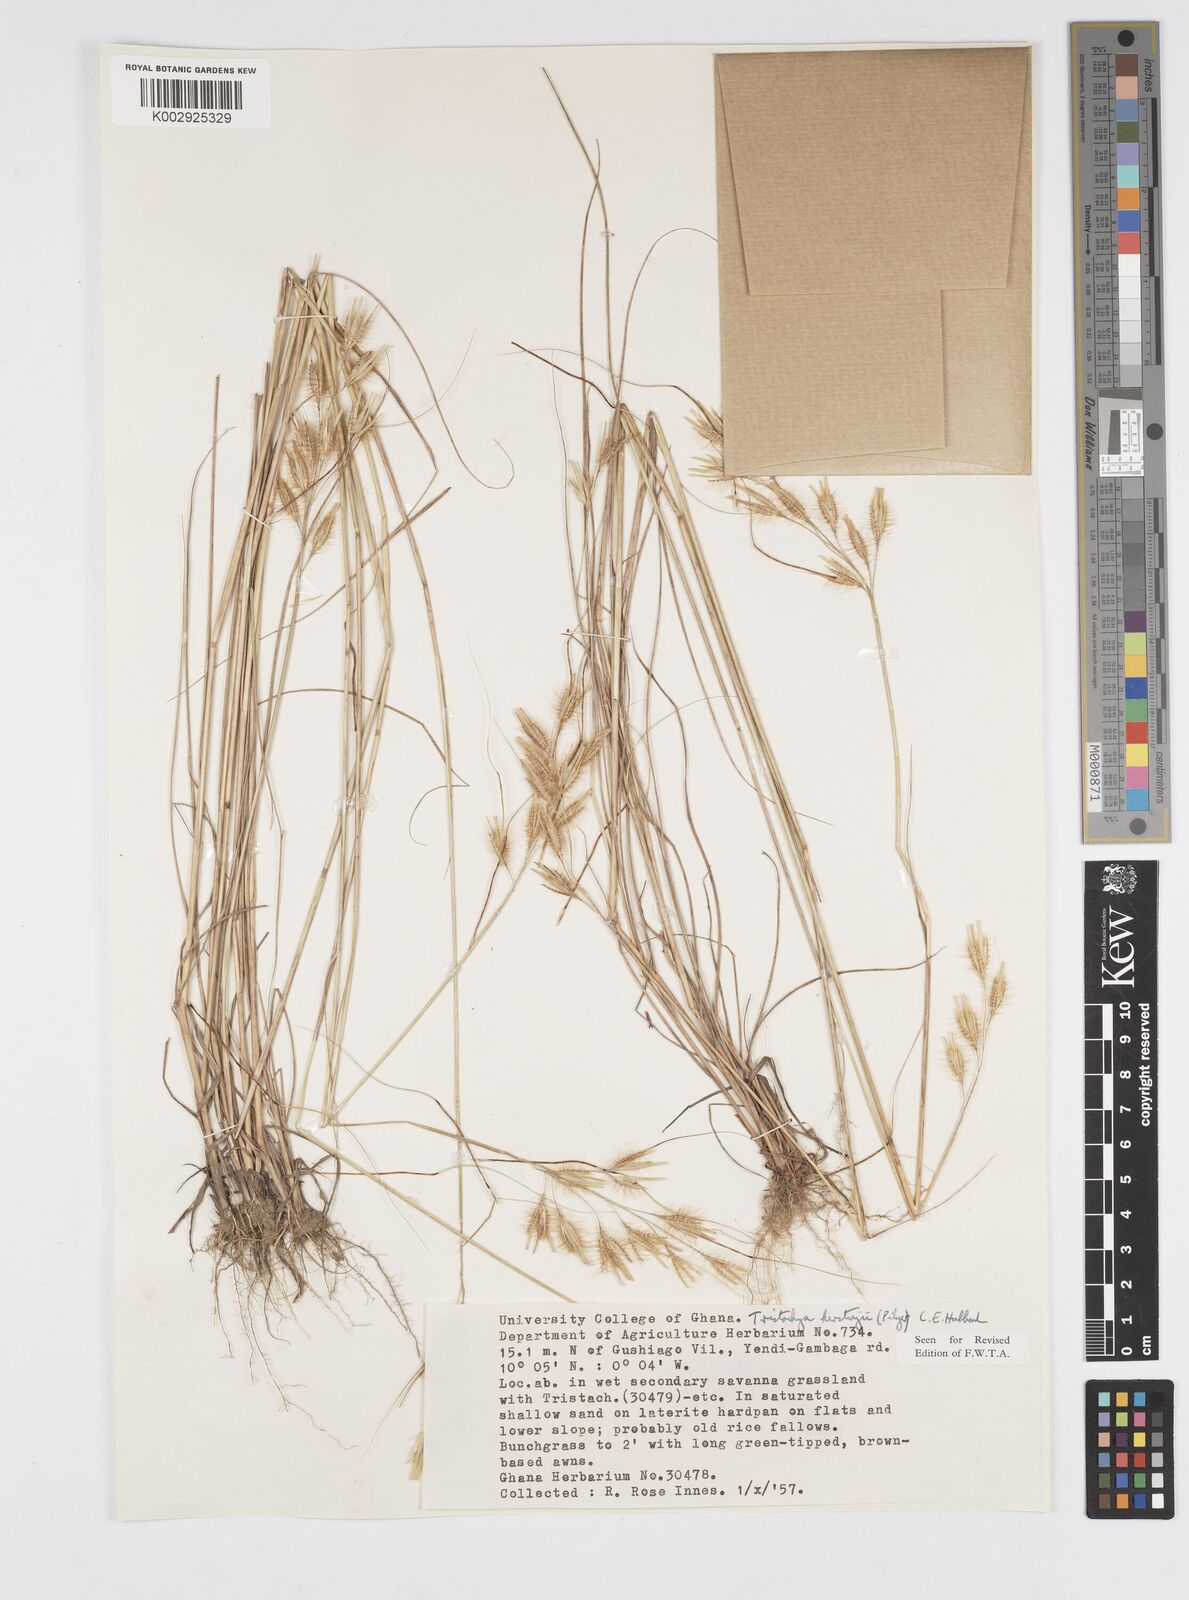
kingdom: Plantae
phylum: Tracheophyta
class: Liliopsida
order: Poales
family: Poaceae
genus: Loudetiopsis
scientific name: Loudetiopsis kerstingii
